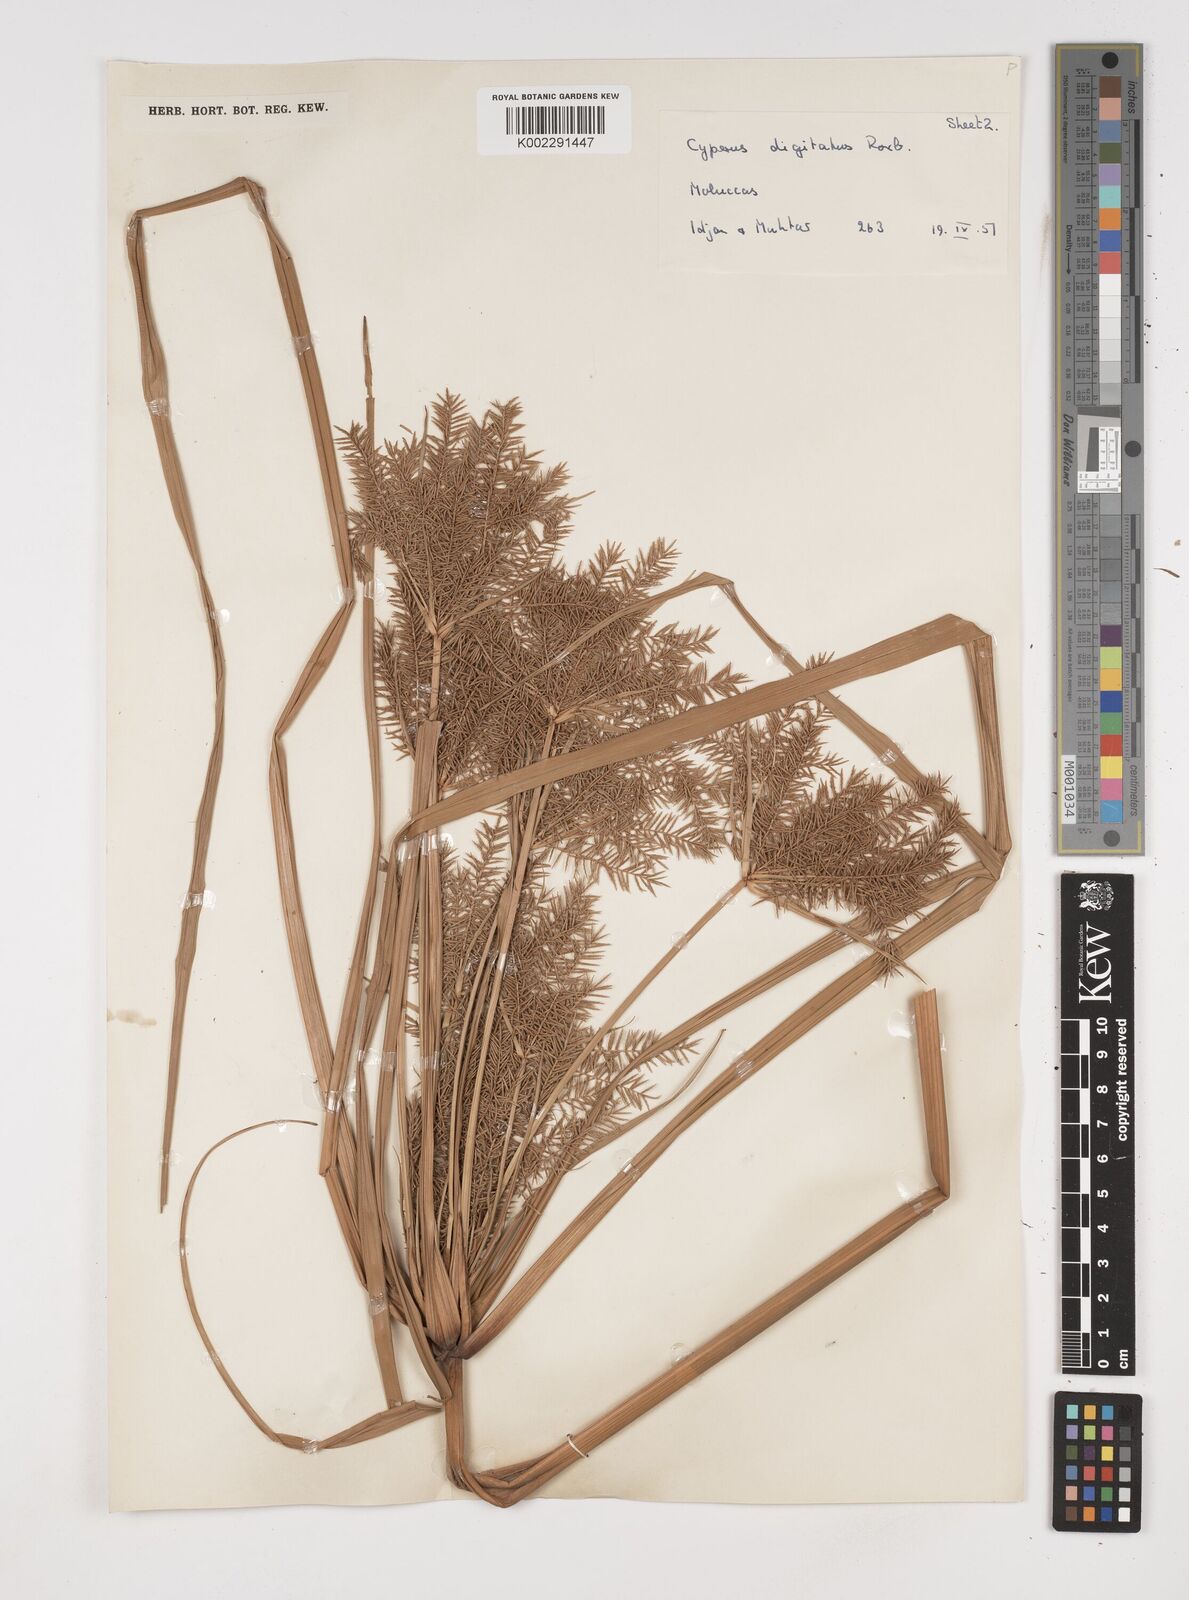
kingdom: Plantae
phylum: Tracheophyta
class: Liliopsida
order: Poales
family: Cyperaceae
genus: Cyperus
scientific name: Cyperus digitatus
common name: Finger flatsedge
